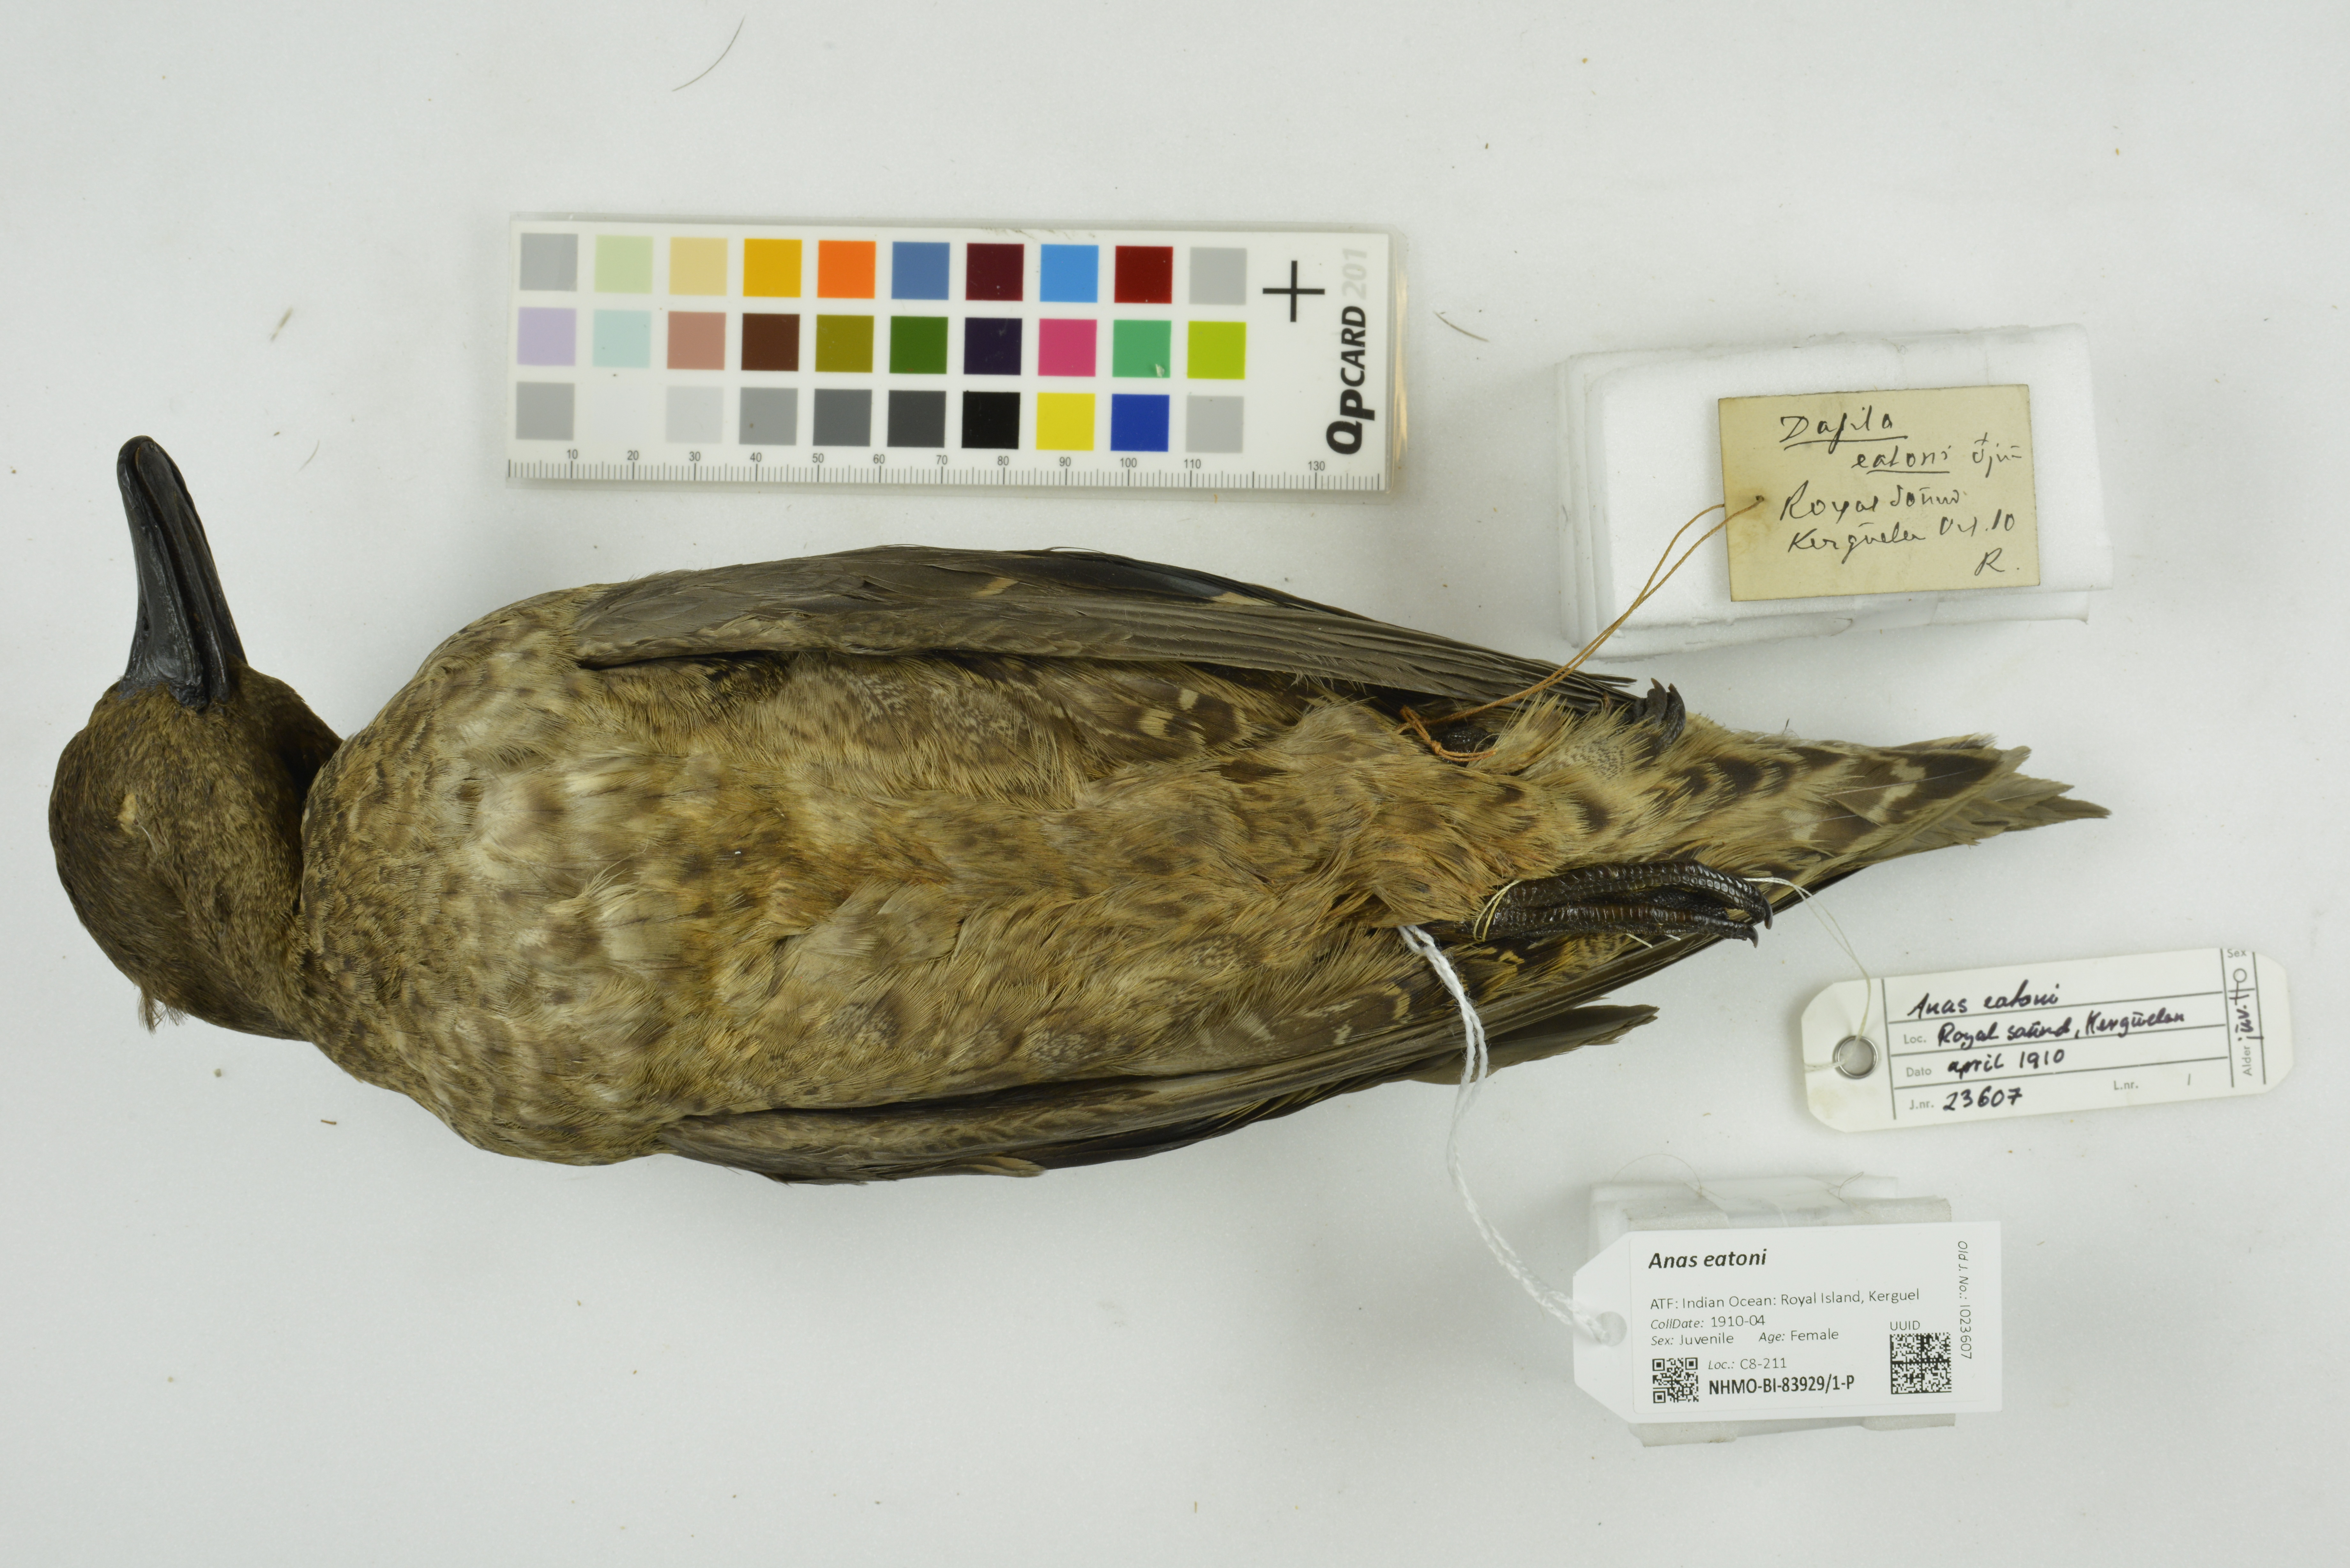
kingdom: Animalia
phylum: Chordata
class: Aves
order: Anseriformes
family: Anatidae
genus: Anas
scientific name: Anas eatoni
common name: Eaton's pintail
